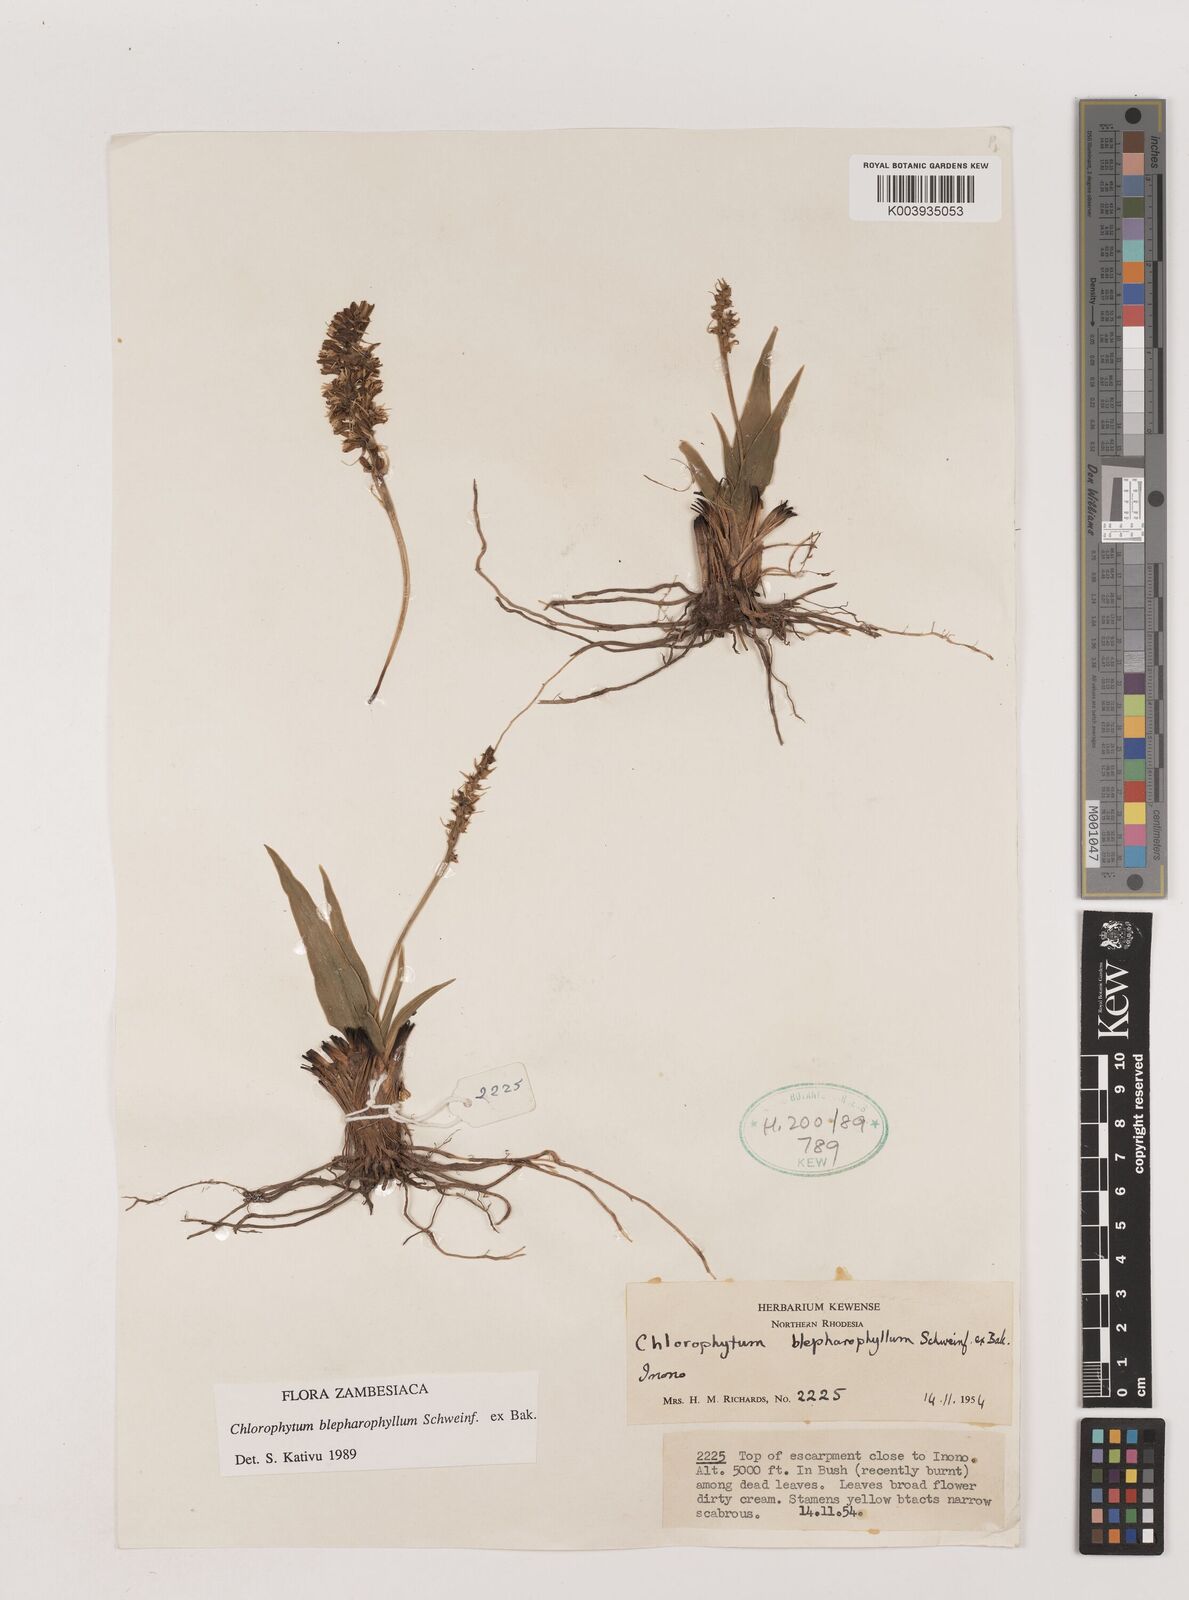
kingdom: Plantae
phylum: Tracheophyta
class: Liliopsida
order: Asparagales
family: Asparagaceae
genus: Chlorophytum
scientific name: Chlorophytum blepharophyllum
